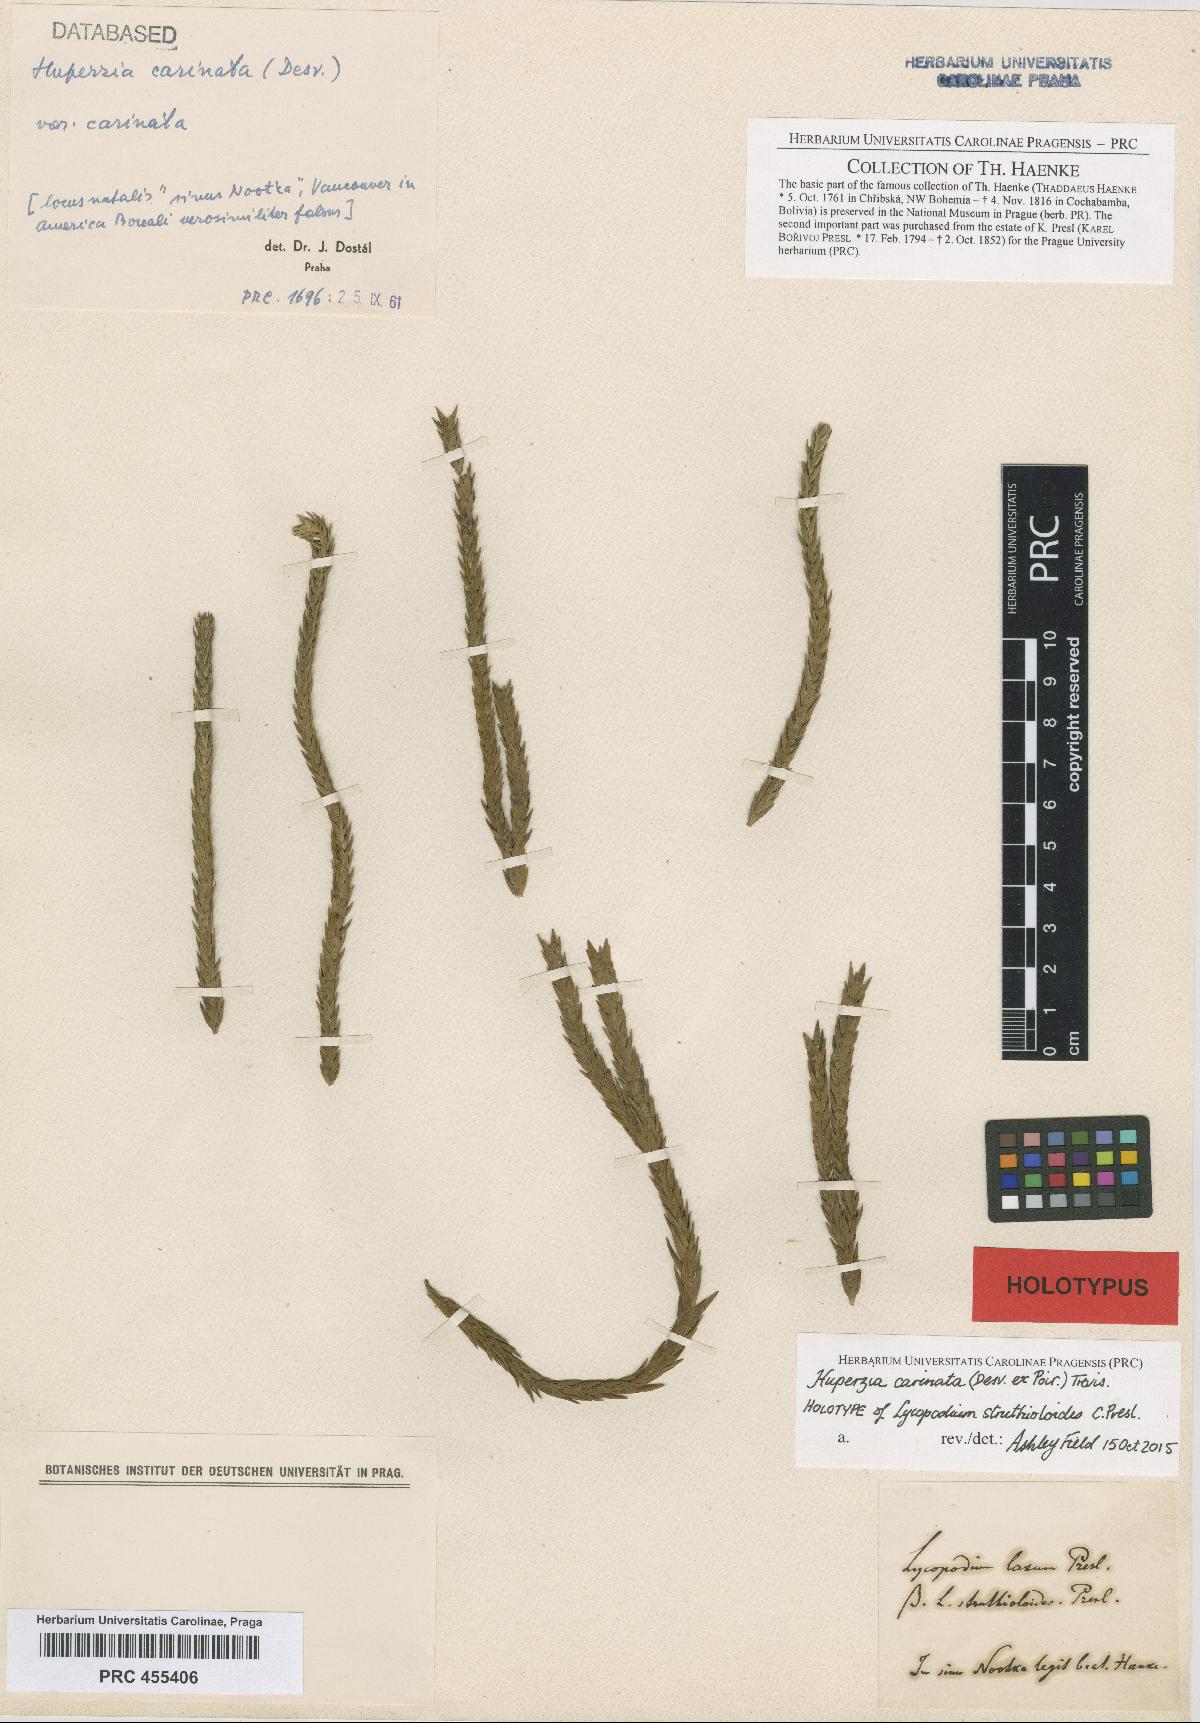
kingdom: Plantae
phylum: Tracheophyta
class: Lycopodiopsida
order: Lycopodiales
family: Lycopodiaceae
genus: Phlegmariurus
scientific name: Phlegmariurus carinatus
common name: Keeled tassel-fern
